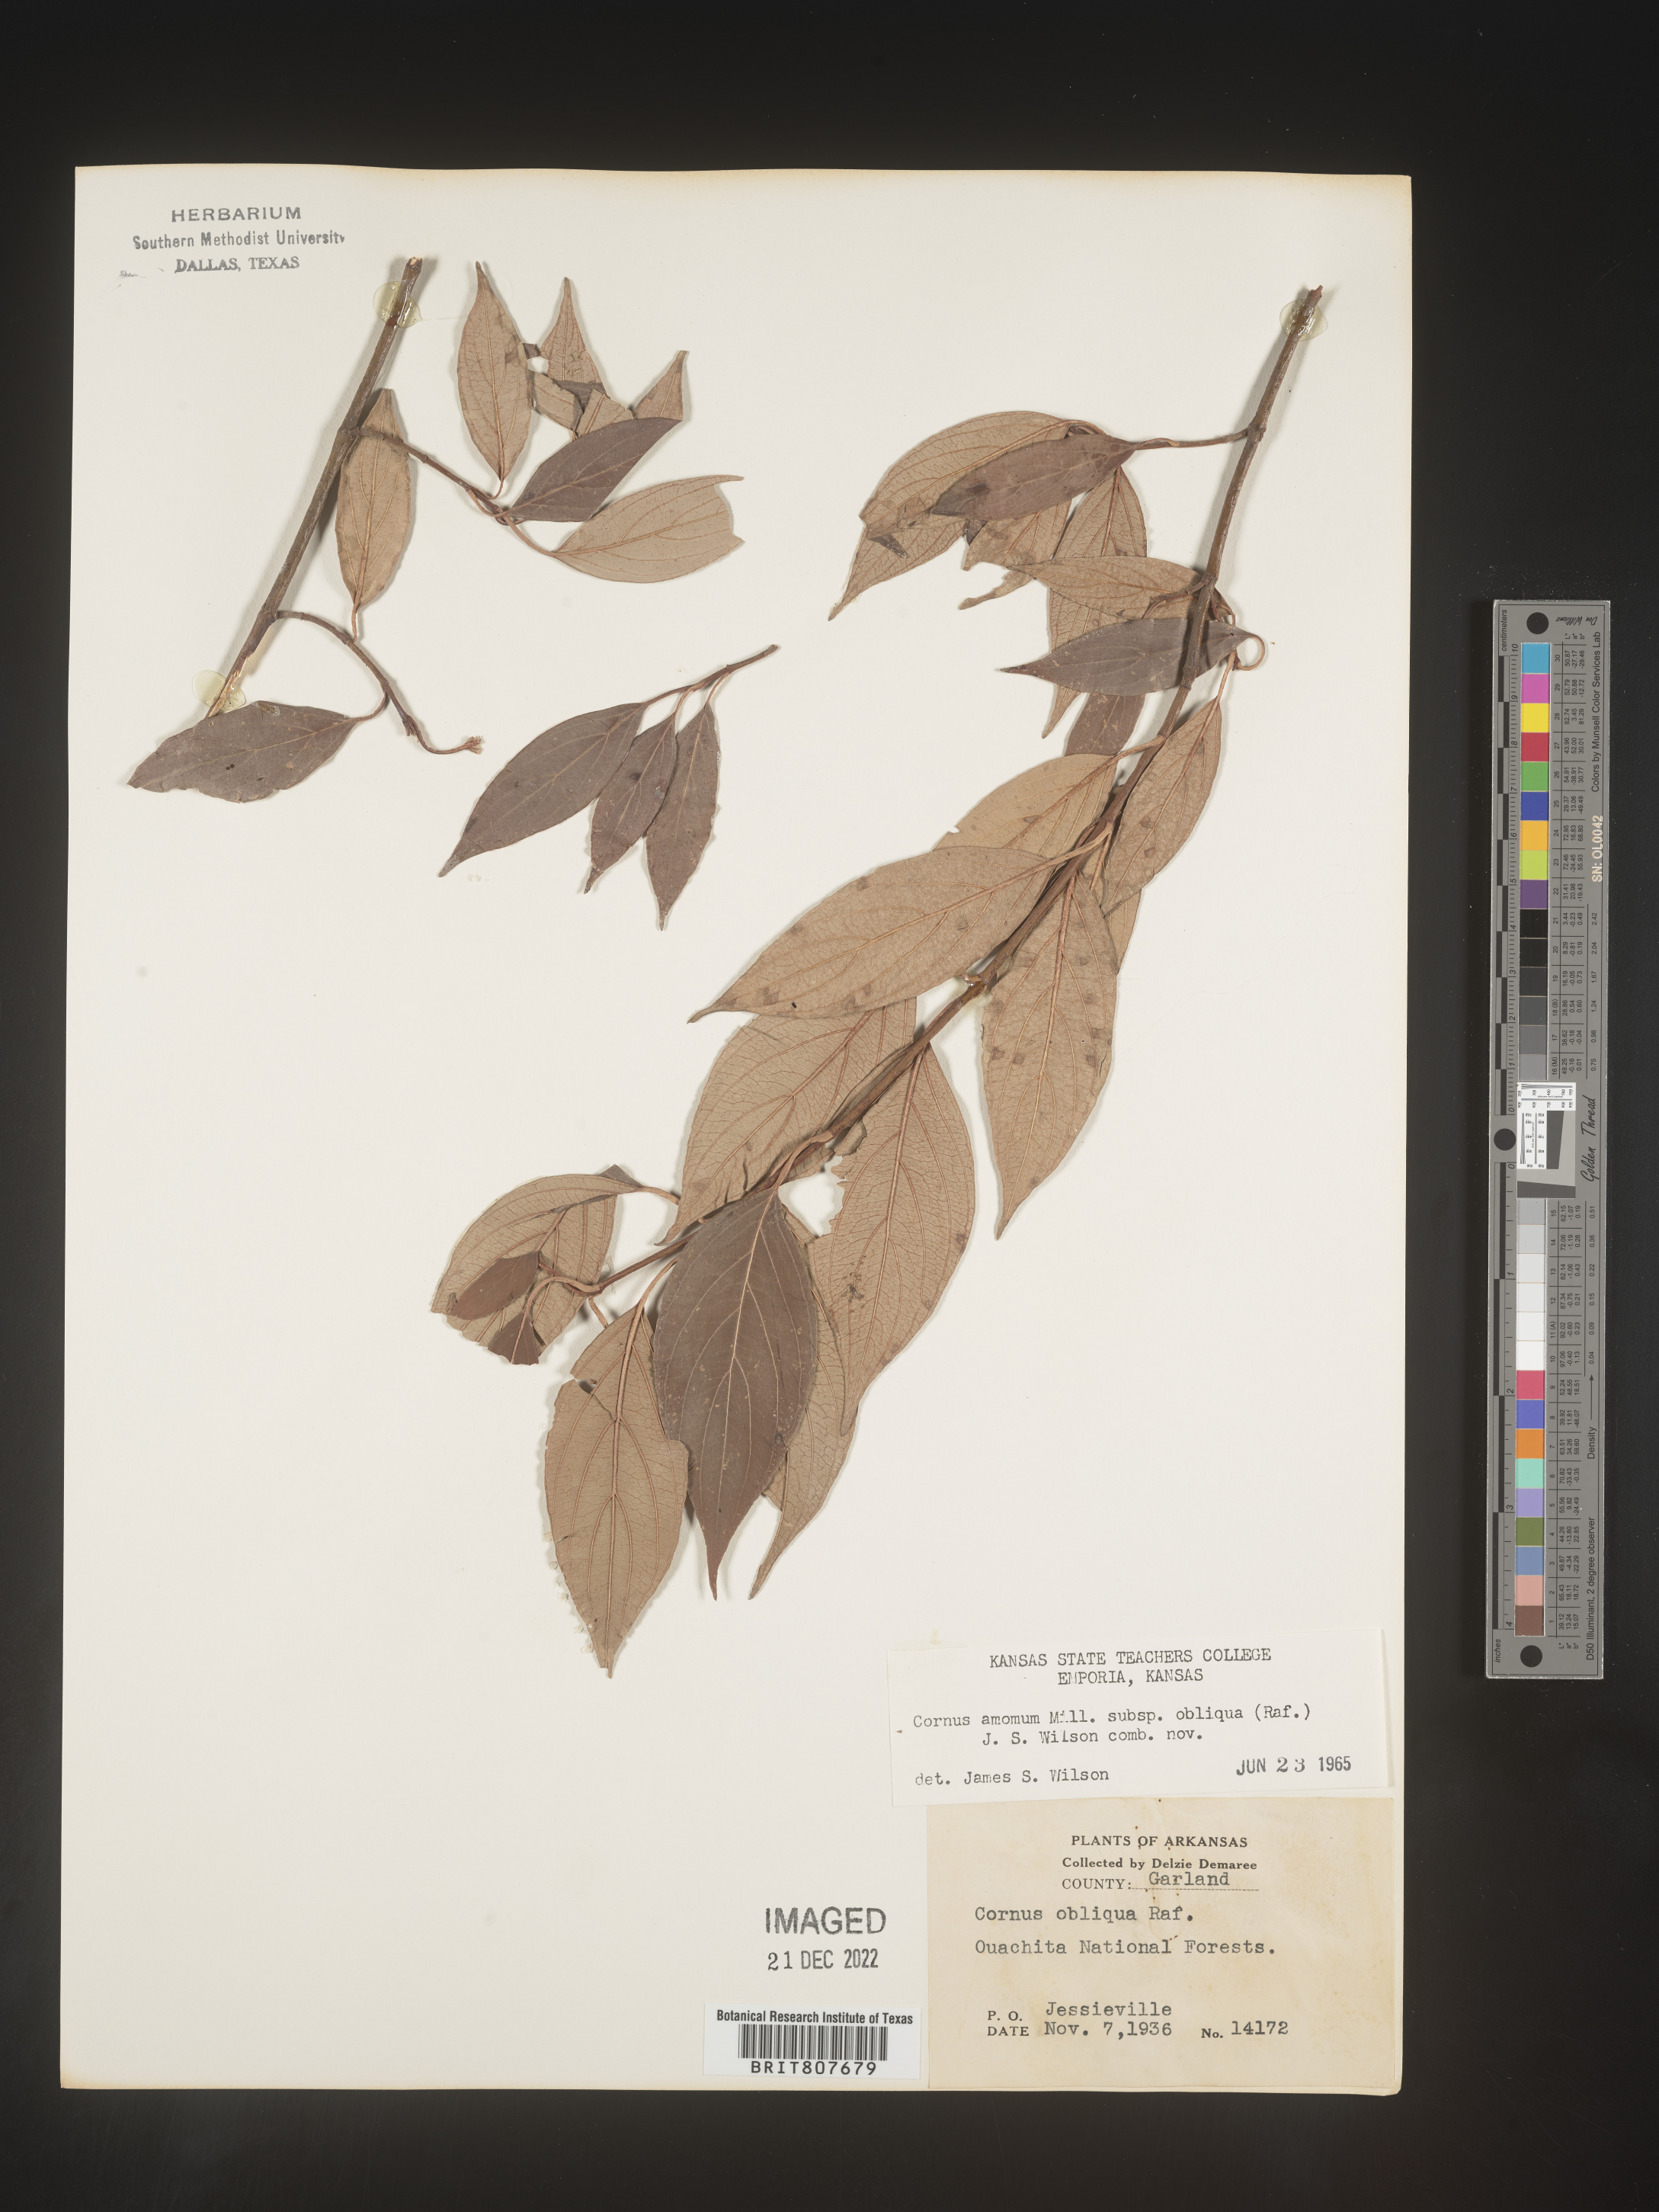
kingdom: Plantae
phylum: Tracheophyta
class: Magnoliopsida
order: Cornales
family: Cornaceae
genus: Cornus
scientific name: Cornus obliqua
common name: Pale dogwood
